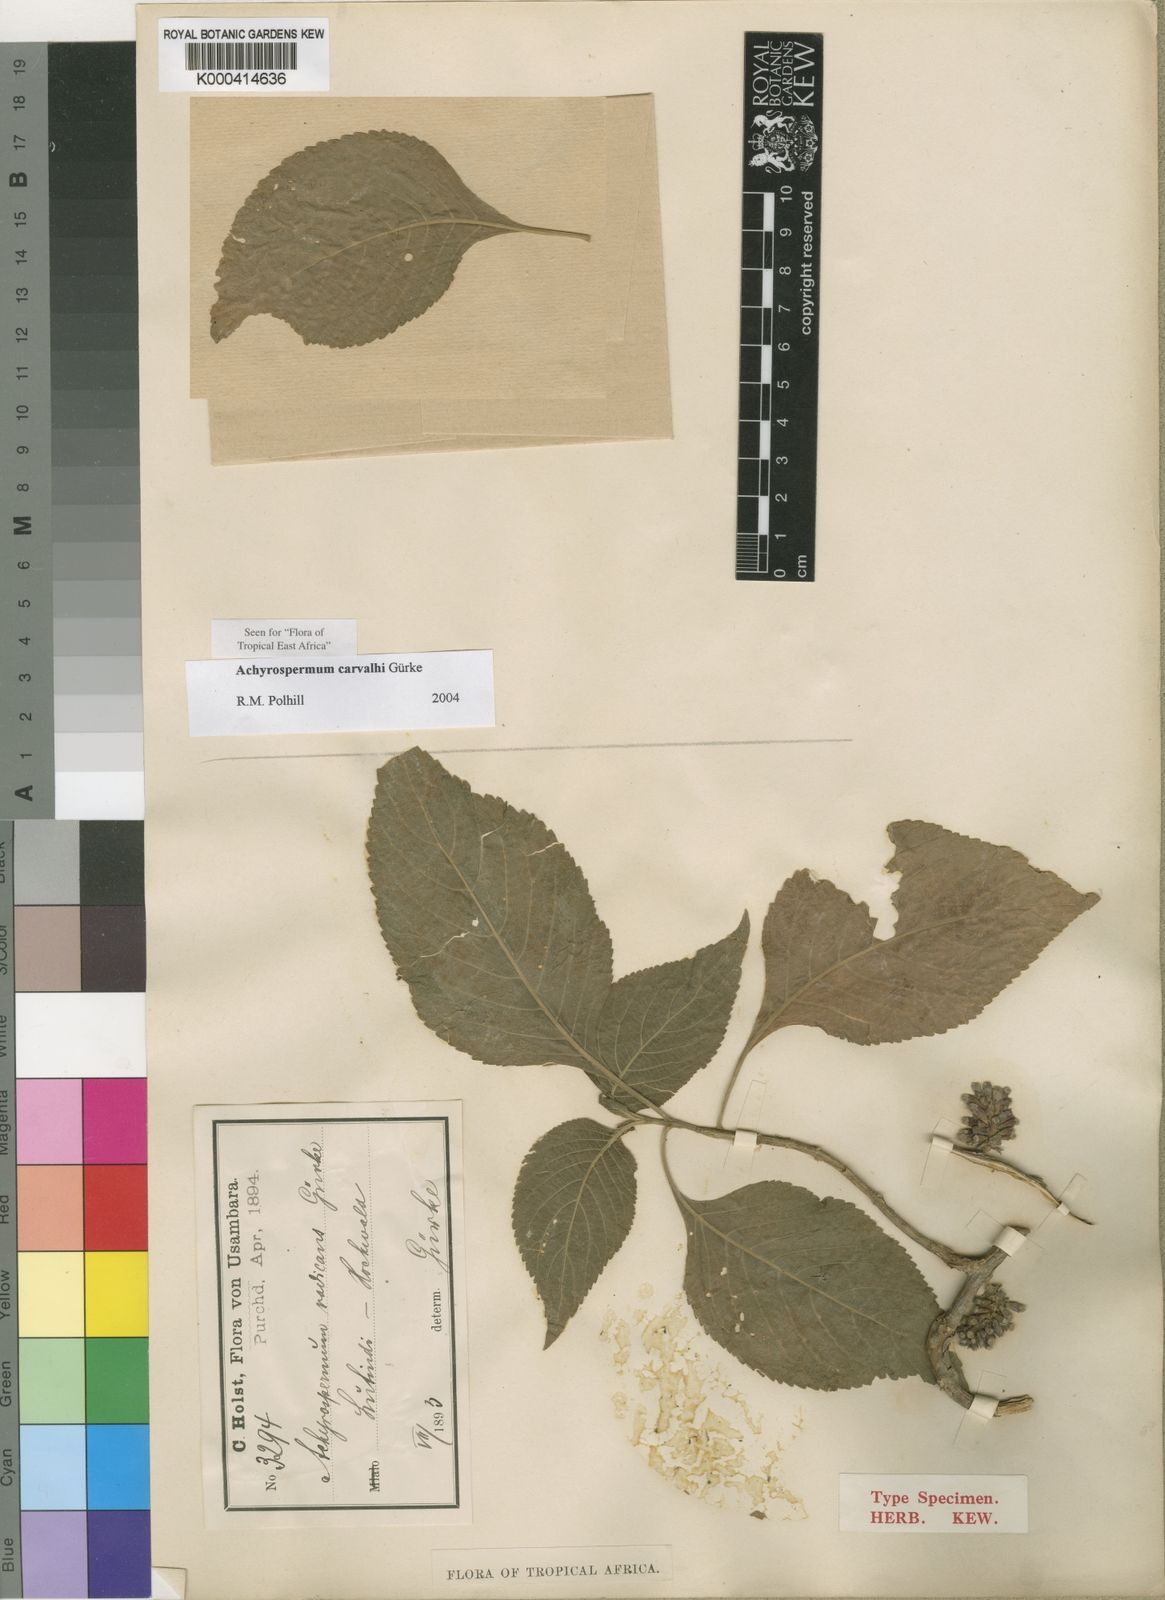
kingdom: Plantae
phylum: Tracheophyta
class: Magnoliopsida
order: Lamiales
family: Lamiaceae
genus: Achyrospermum
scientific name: Achyrospermum
